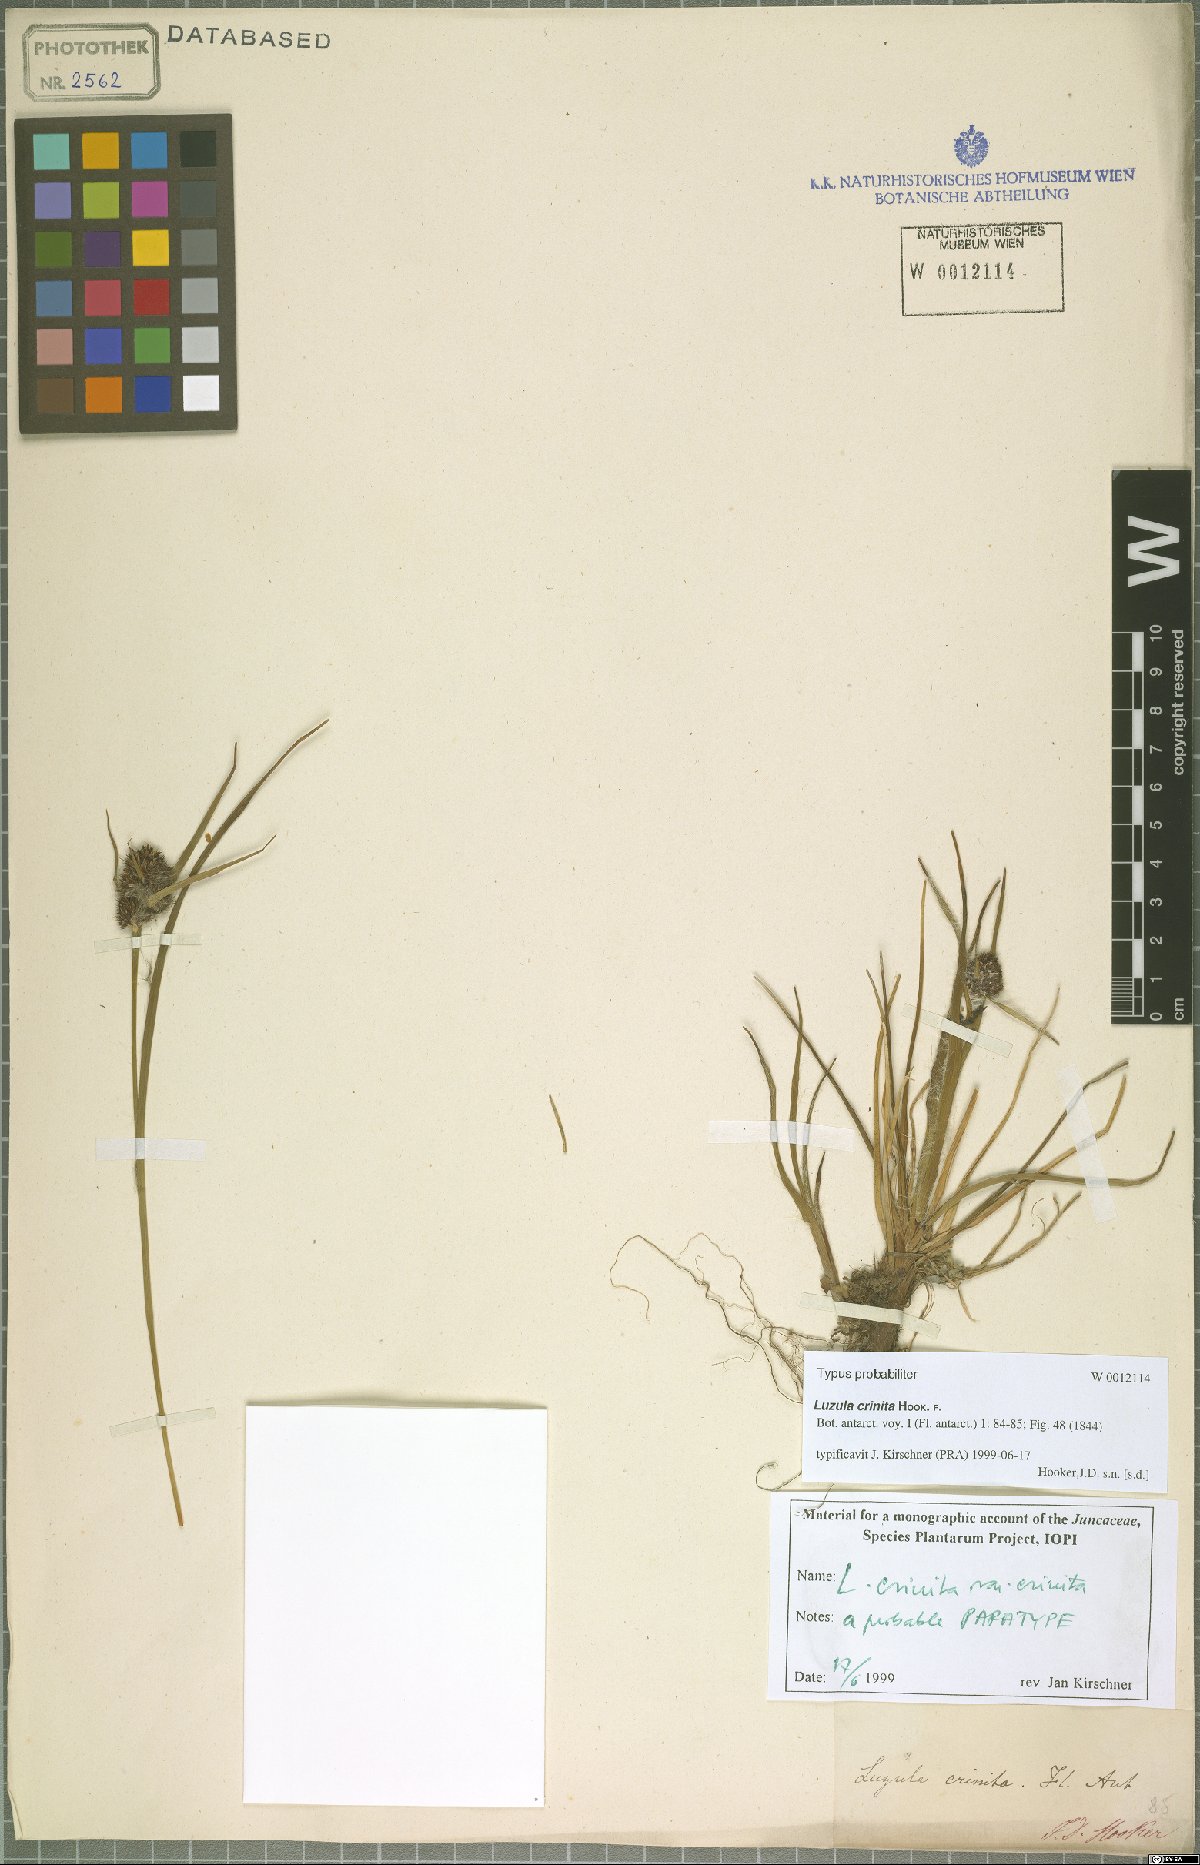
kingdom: Plantae
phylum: Tracheophyta
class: Liliopsida
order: Poales
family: Juncaceae
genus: Luzula
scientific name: Luzula crinita
